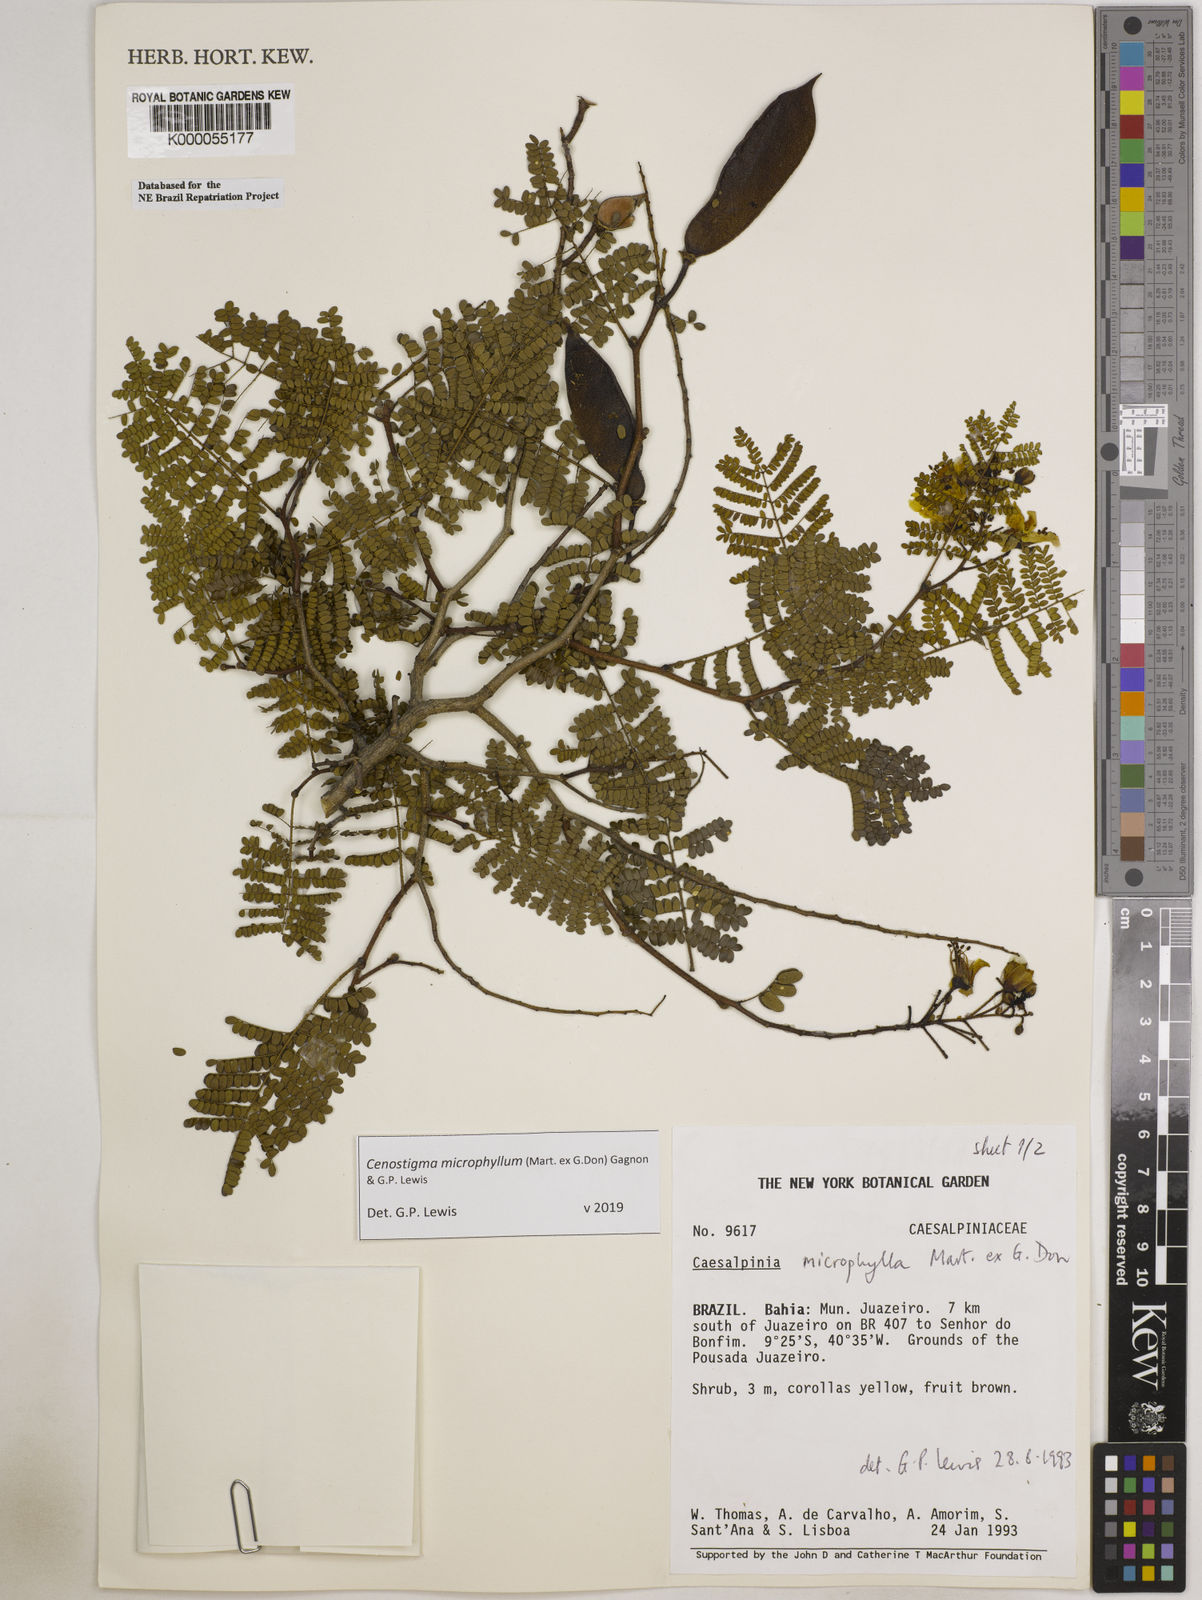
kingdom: Plantae
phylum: Tracheophyta
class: Magnoliopsida
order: Fabales
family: Fabaceae
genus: Cenostigma
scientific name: Cenostigma microphyllum
